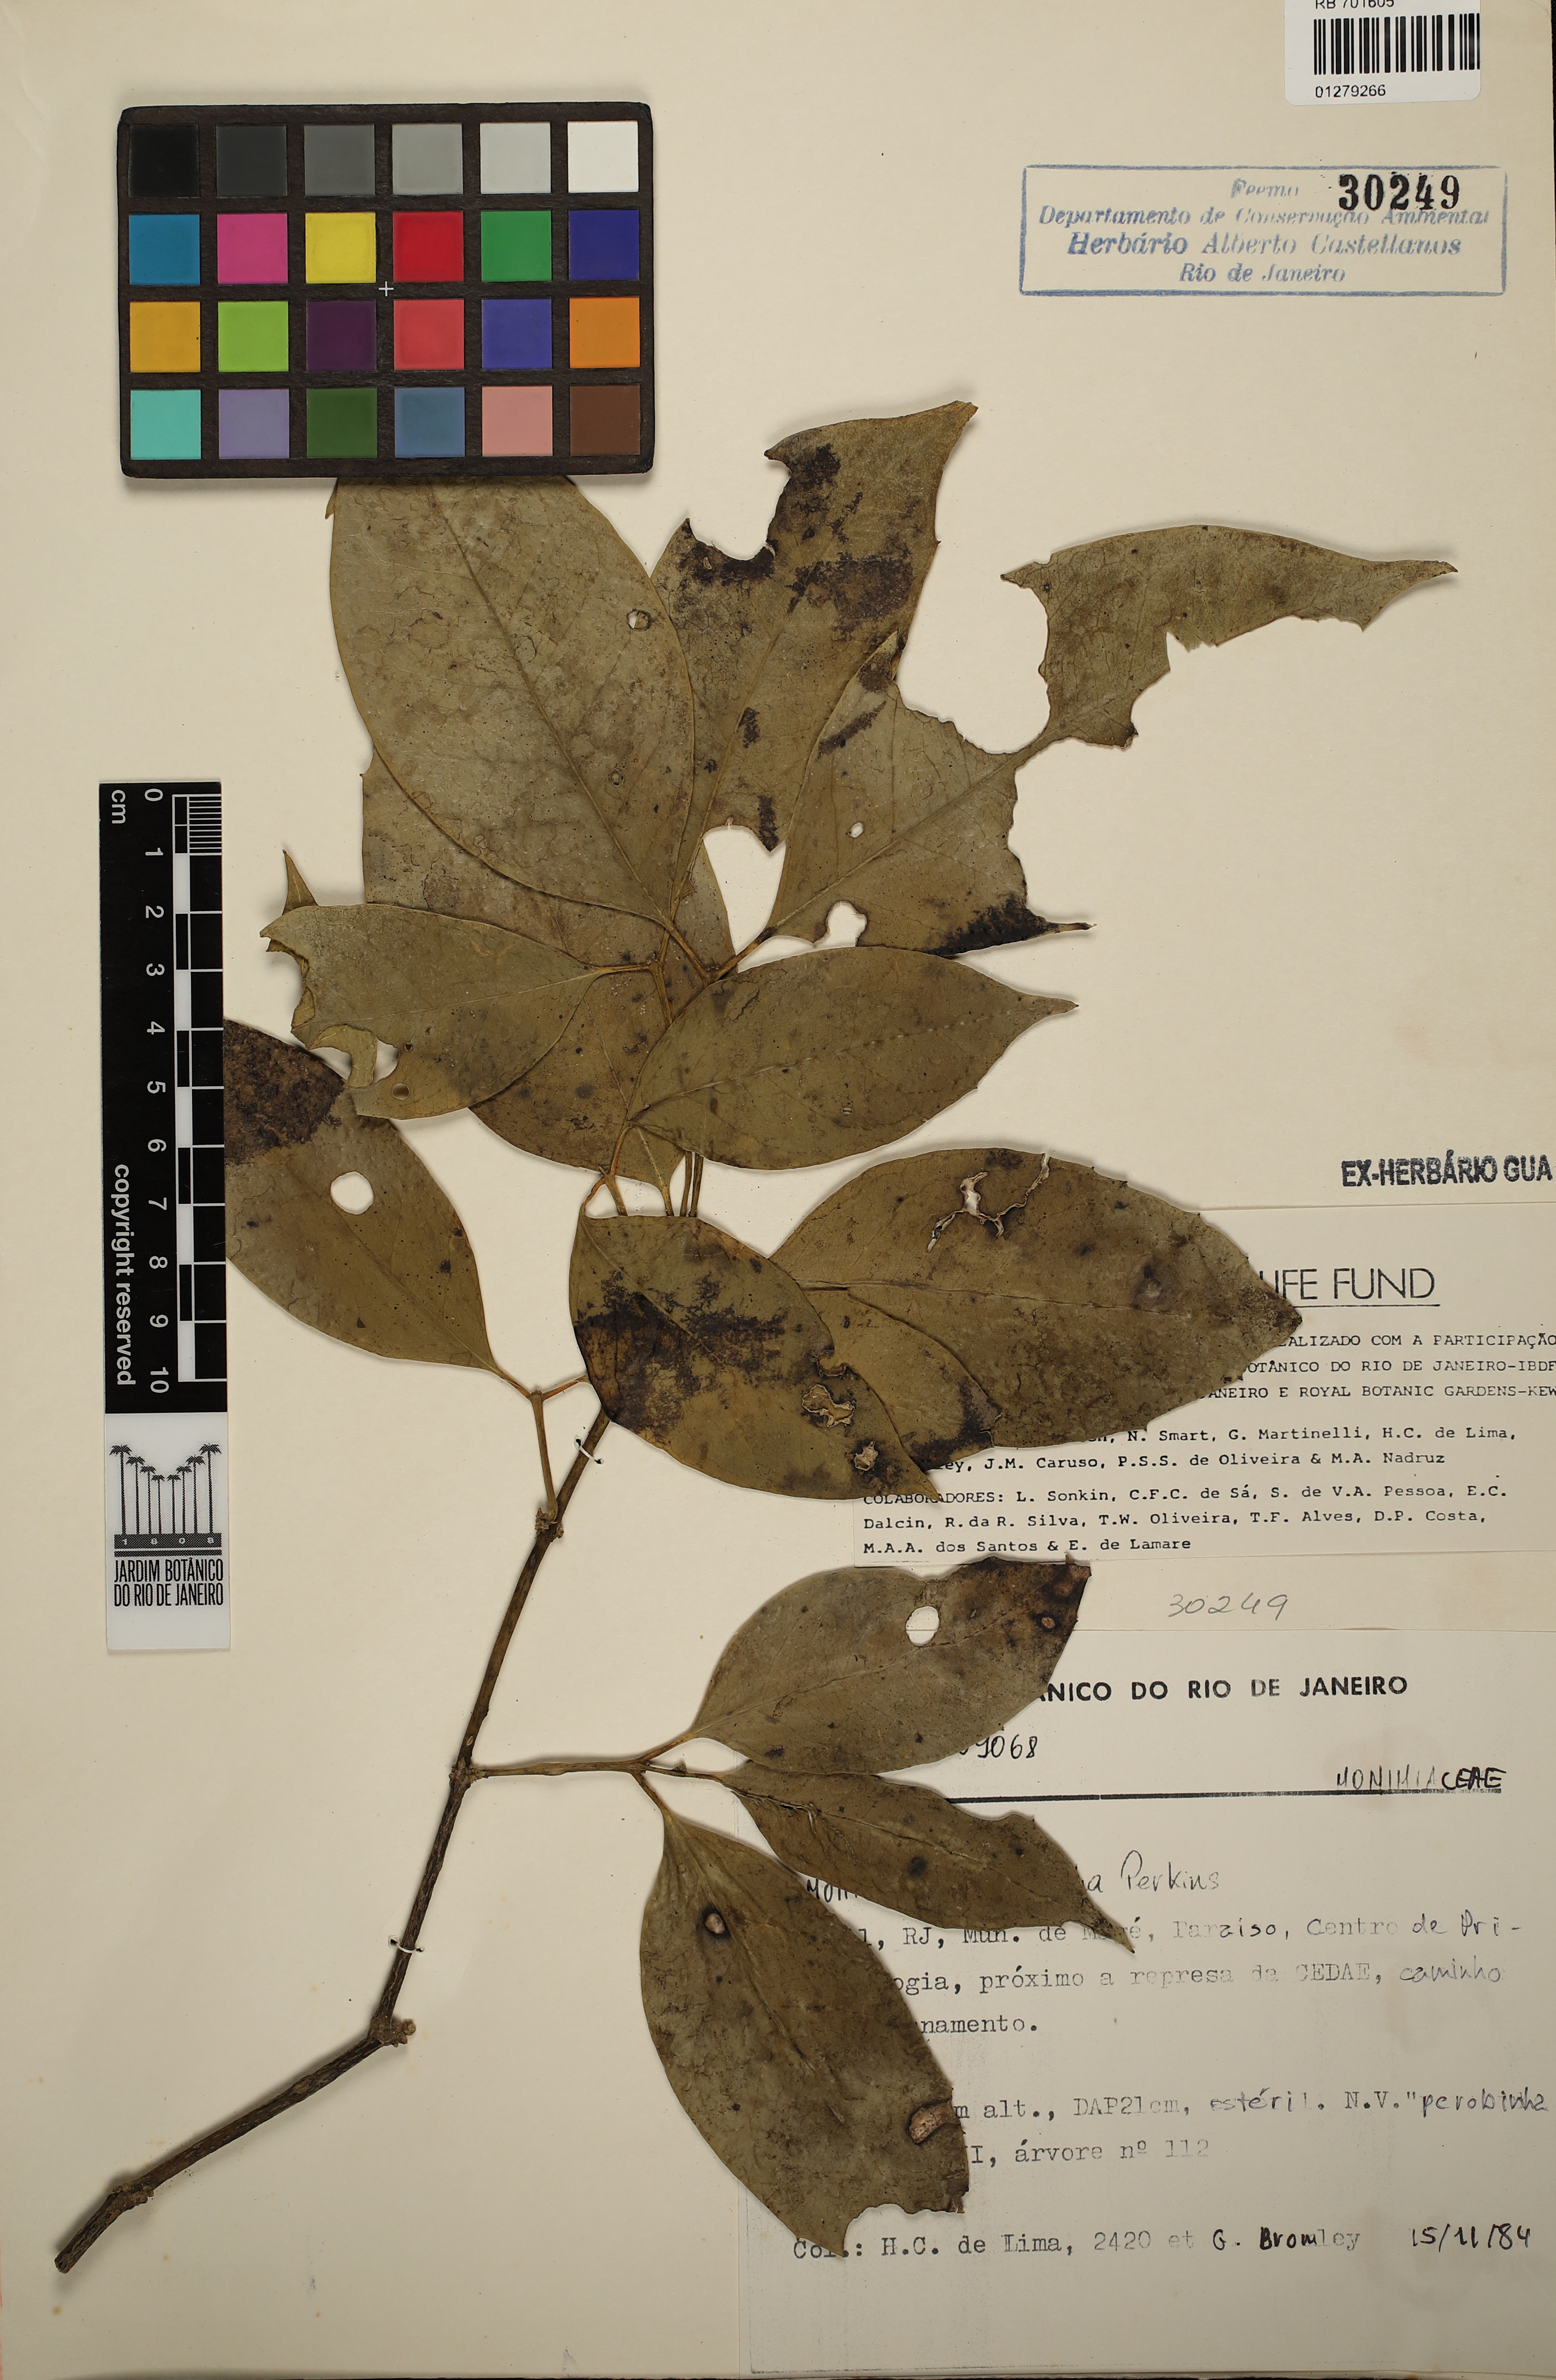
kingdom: Plantae
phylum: Tracheophyta
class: Magnoliopsida
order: Laurales
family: Monimiaceae
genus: Mollinedia
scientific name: Mollinedia glabra
